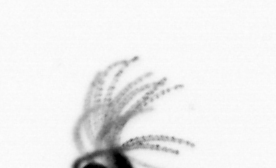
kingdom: Animalia
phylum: Cnidaria
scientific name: Cnidaria
